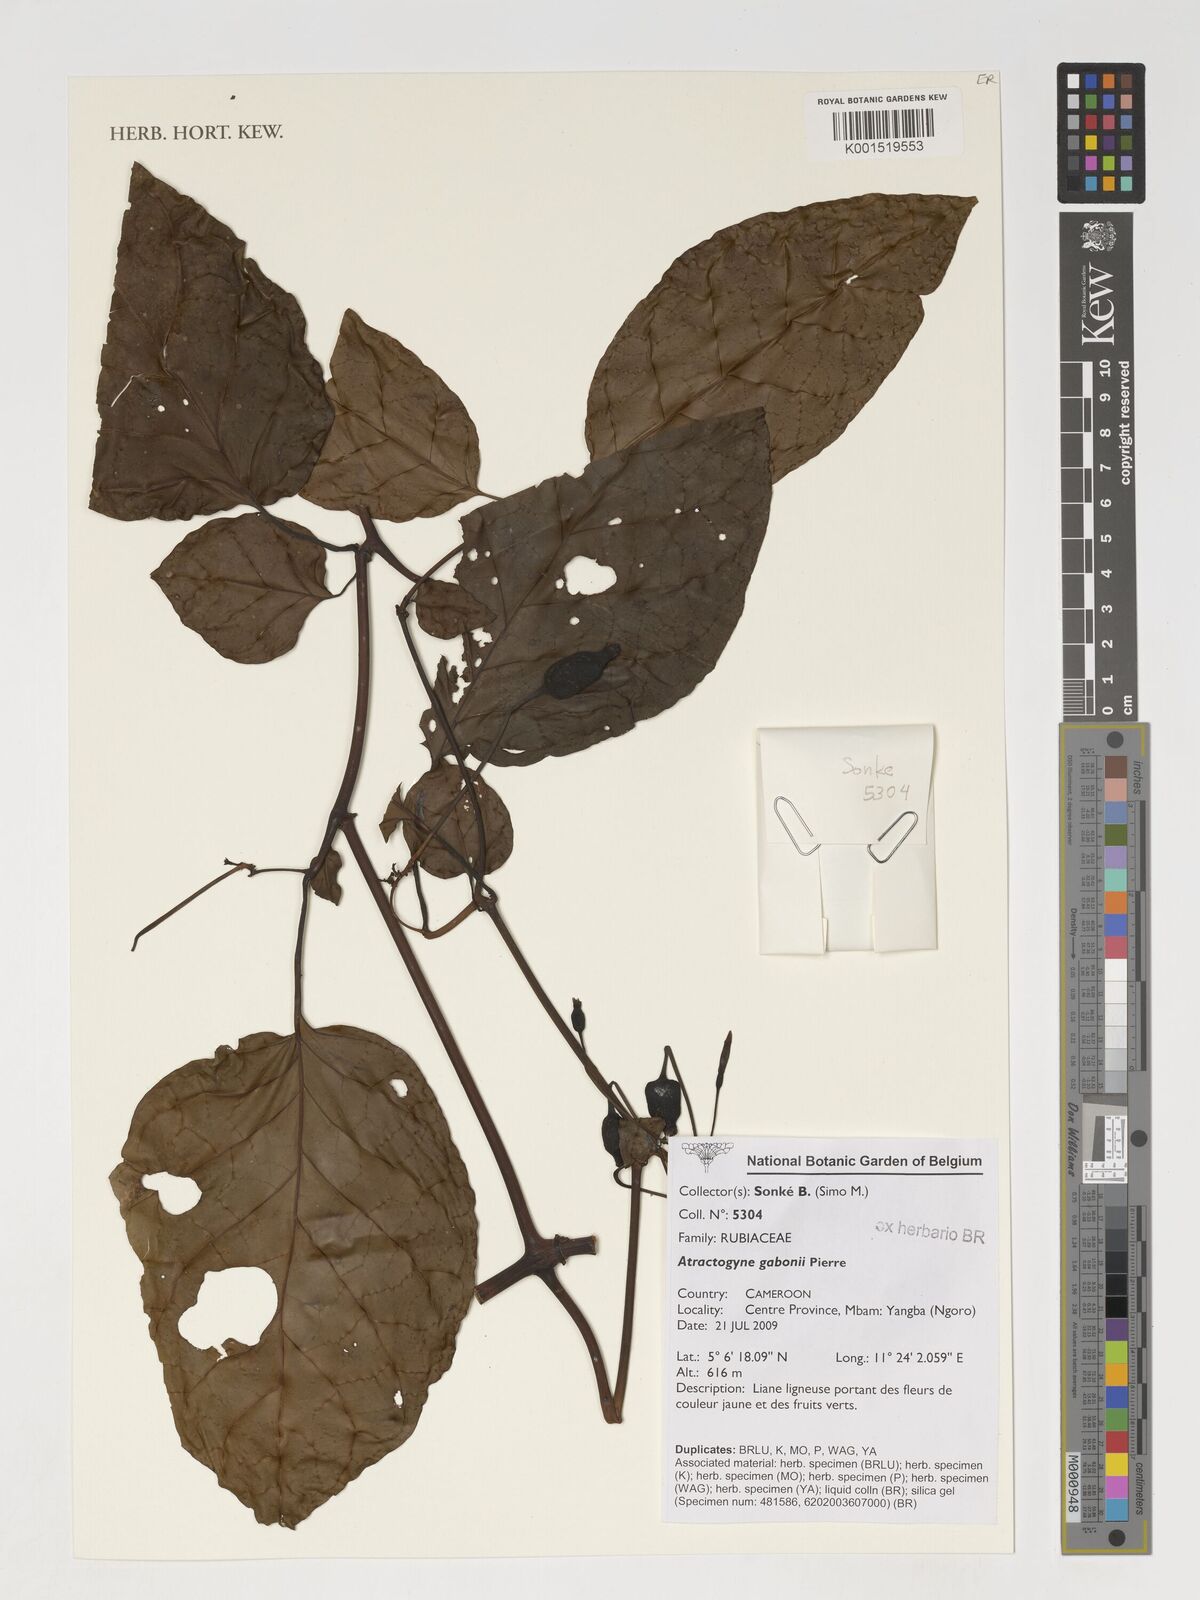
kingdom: Plantae
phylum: Tracheophyta
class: Magnoliopsida
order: Gentianales
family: Rubiaceae
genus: Atractogyne
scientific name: Atractogyne gabonii
